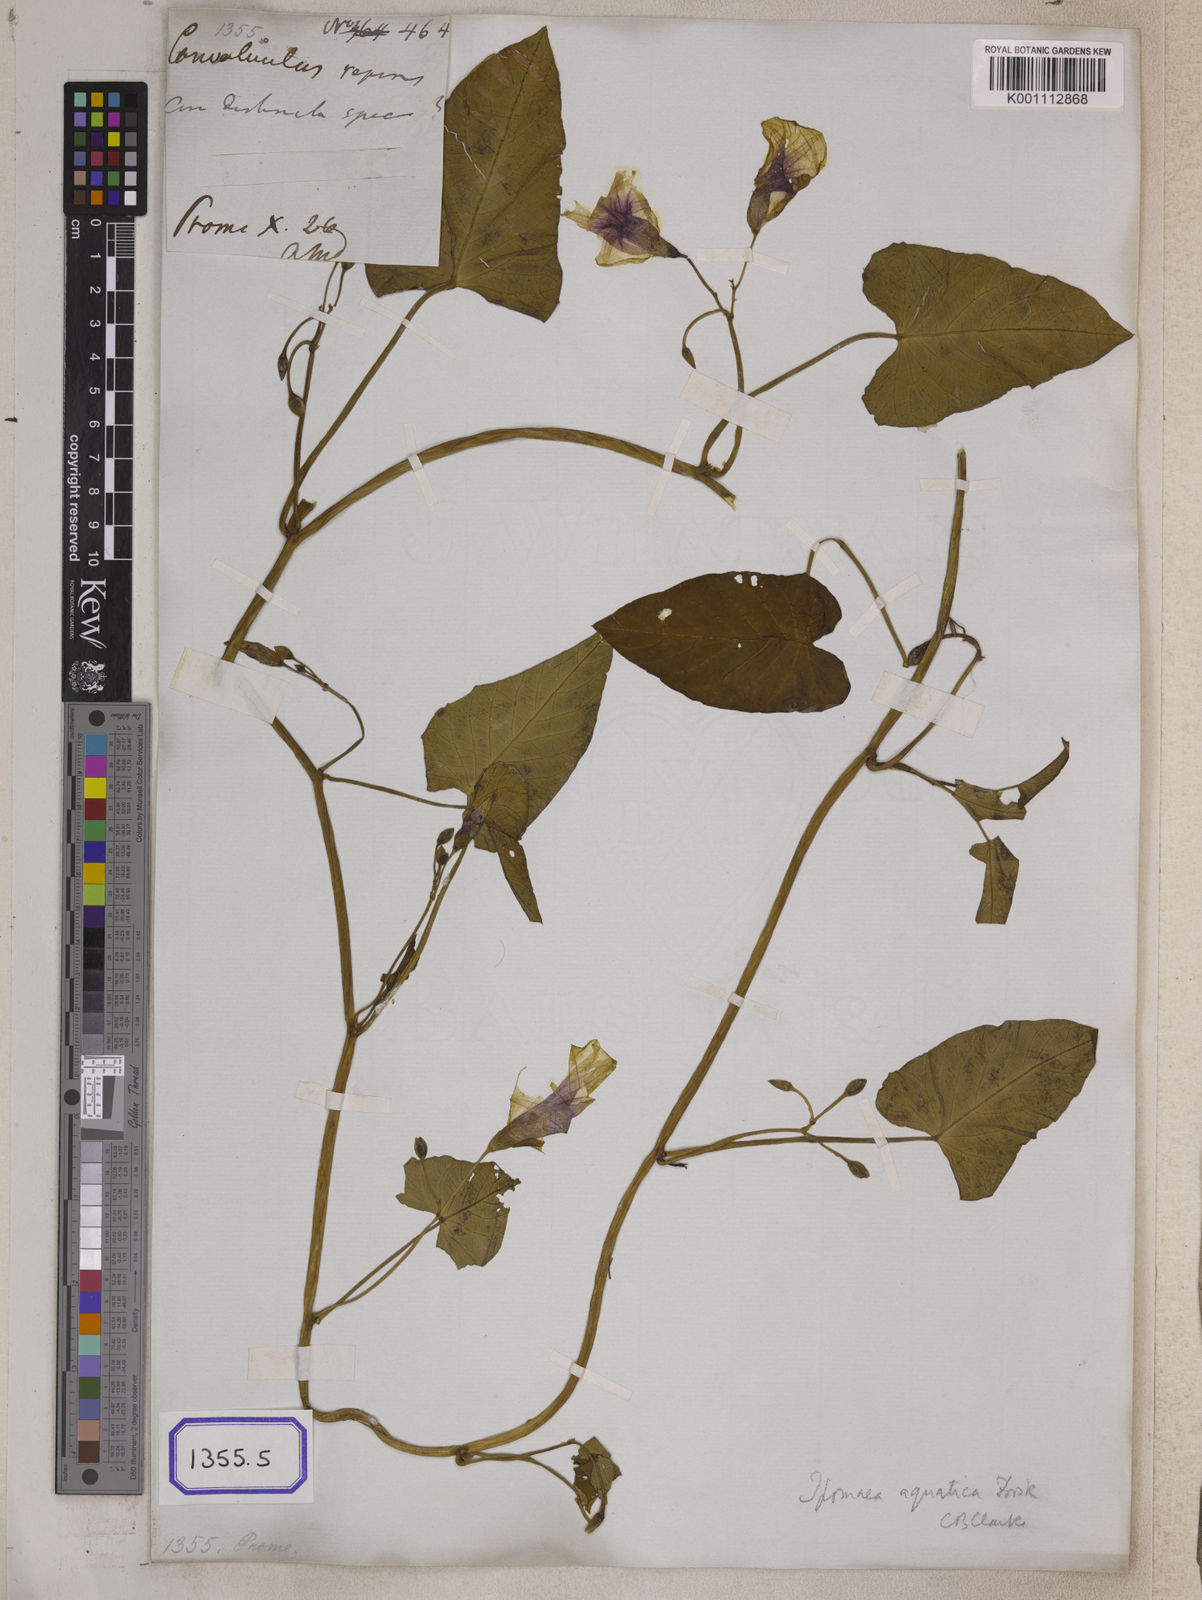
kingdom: Plantae
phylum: Tracheophyta
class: Magnoliopsida
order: Solanales
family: Convolvulaceae
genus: Calystegia
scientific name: Calystegia sepium
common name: Hedge bindweed
